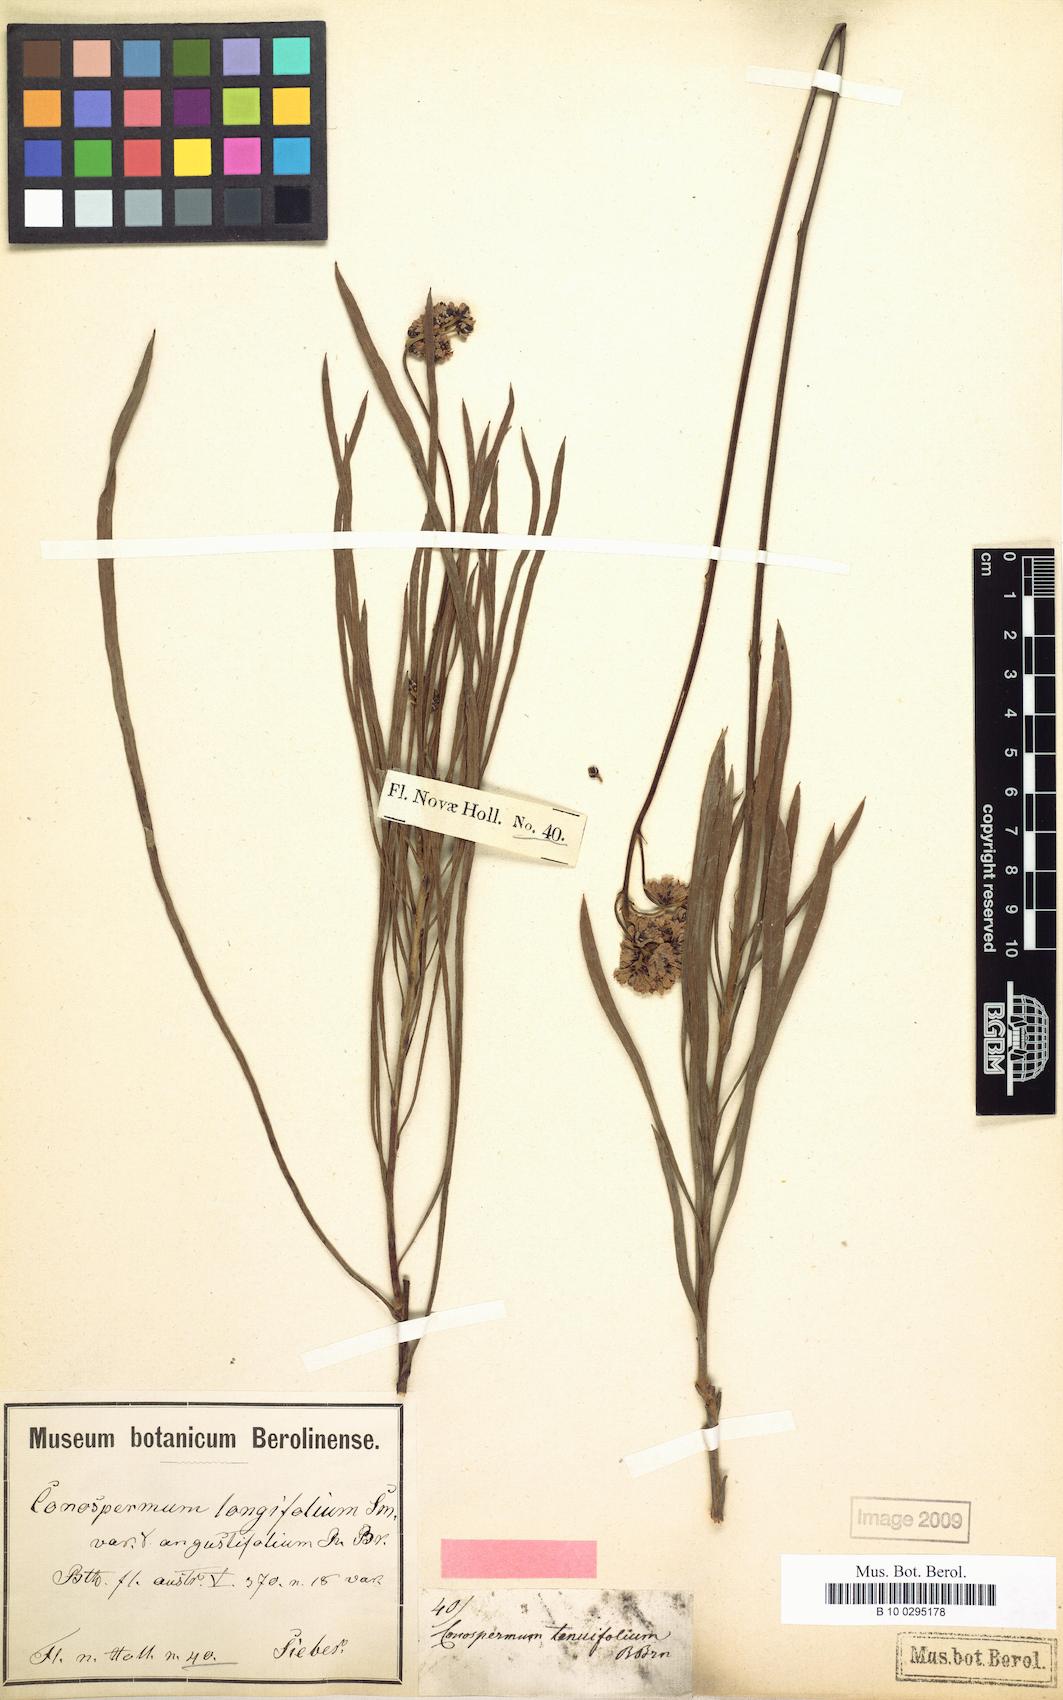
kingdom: Plantae
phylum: Tracheophyta
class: Magnoliopsida
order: Proteales
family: Proteaceae
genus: Conospermum
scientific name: Conospermum longifolium
